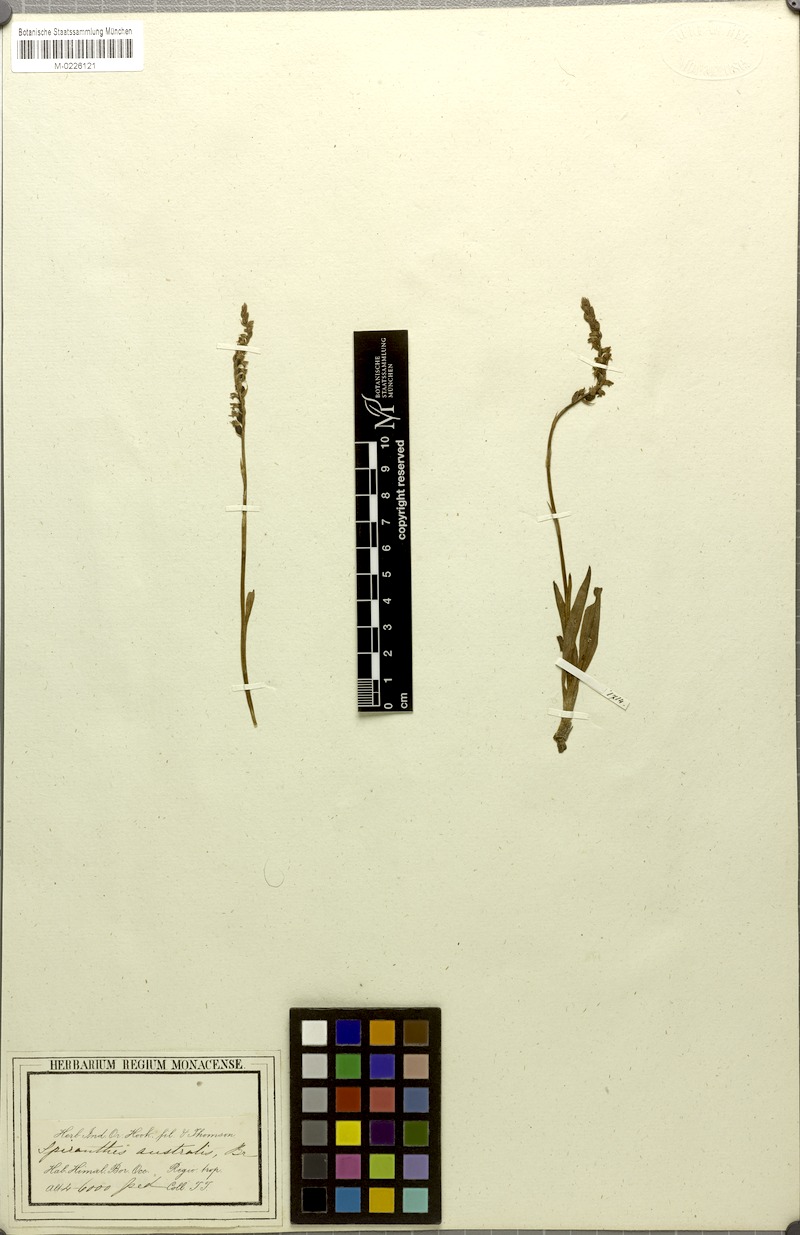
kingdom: Plantae
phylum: Tracheophyta
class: Liliopsida
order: Asparagales
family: Orchidaceae
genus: Spiranthes
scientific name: Spiranthes sinensis
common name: Chinese spiranthes
